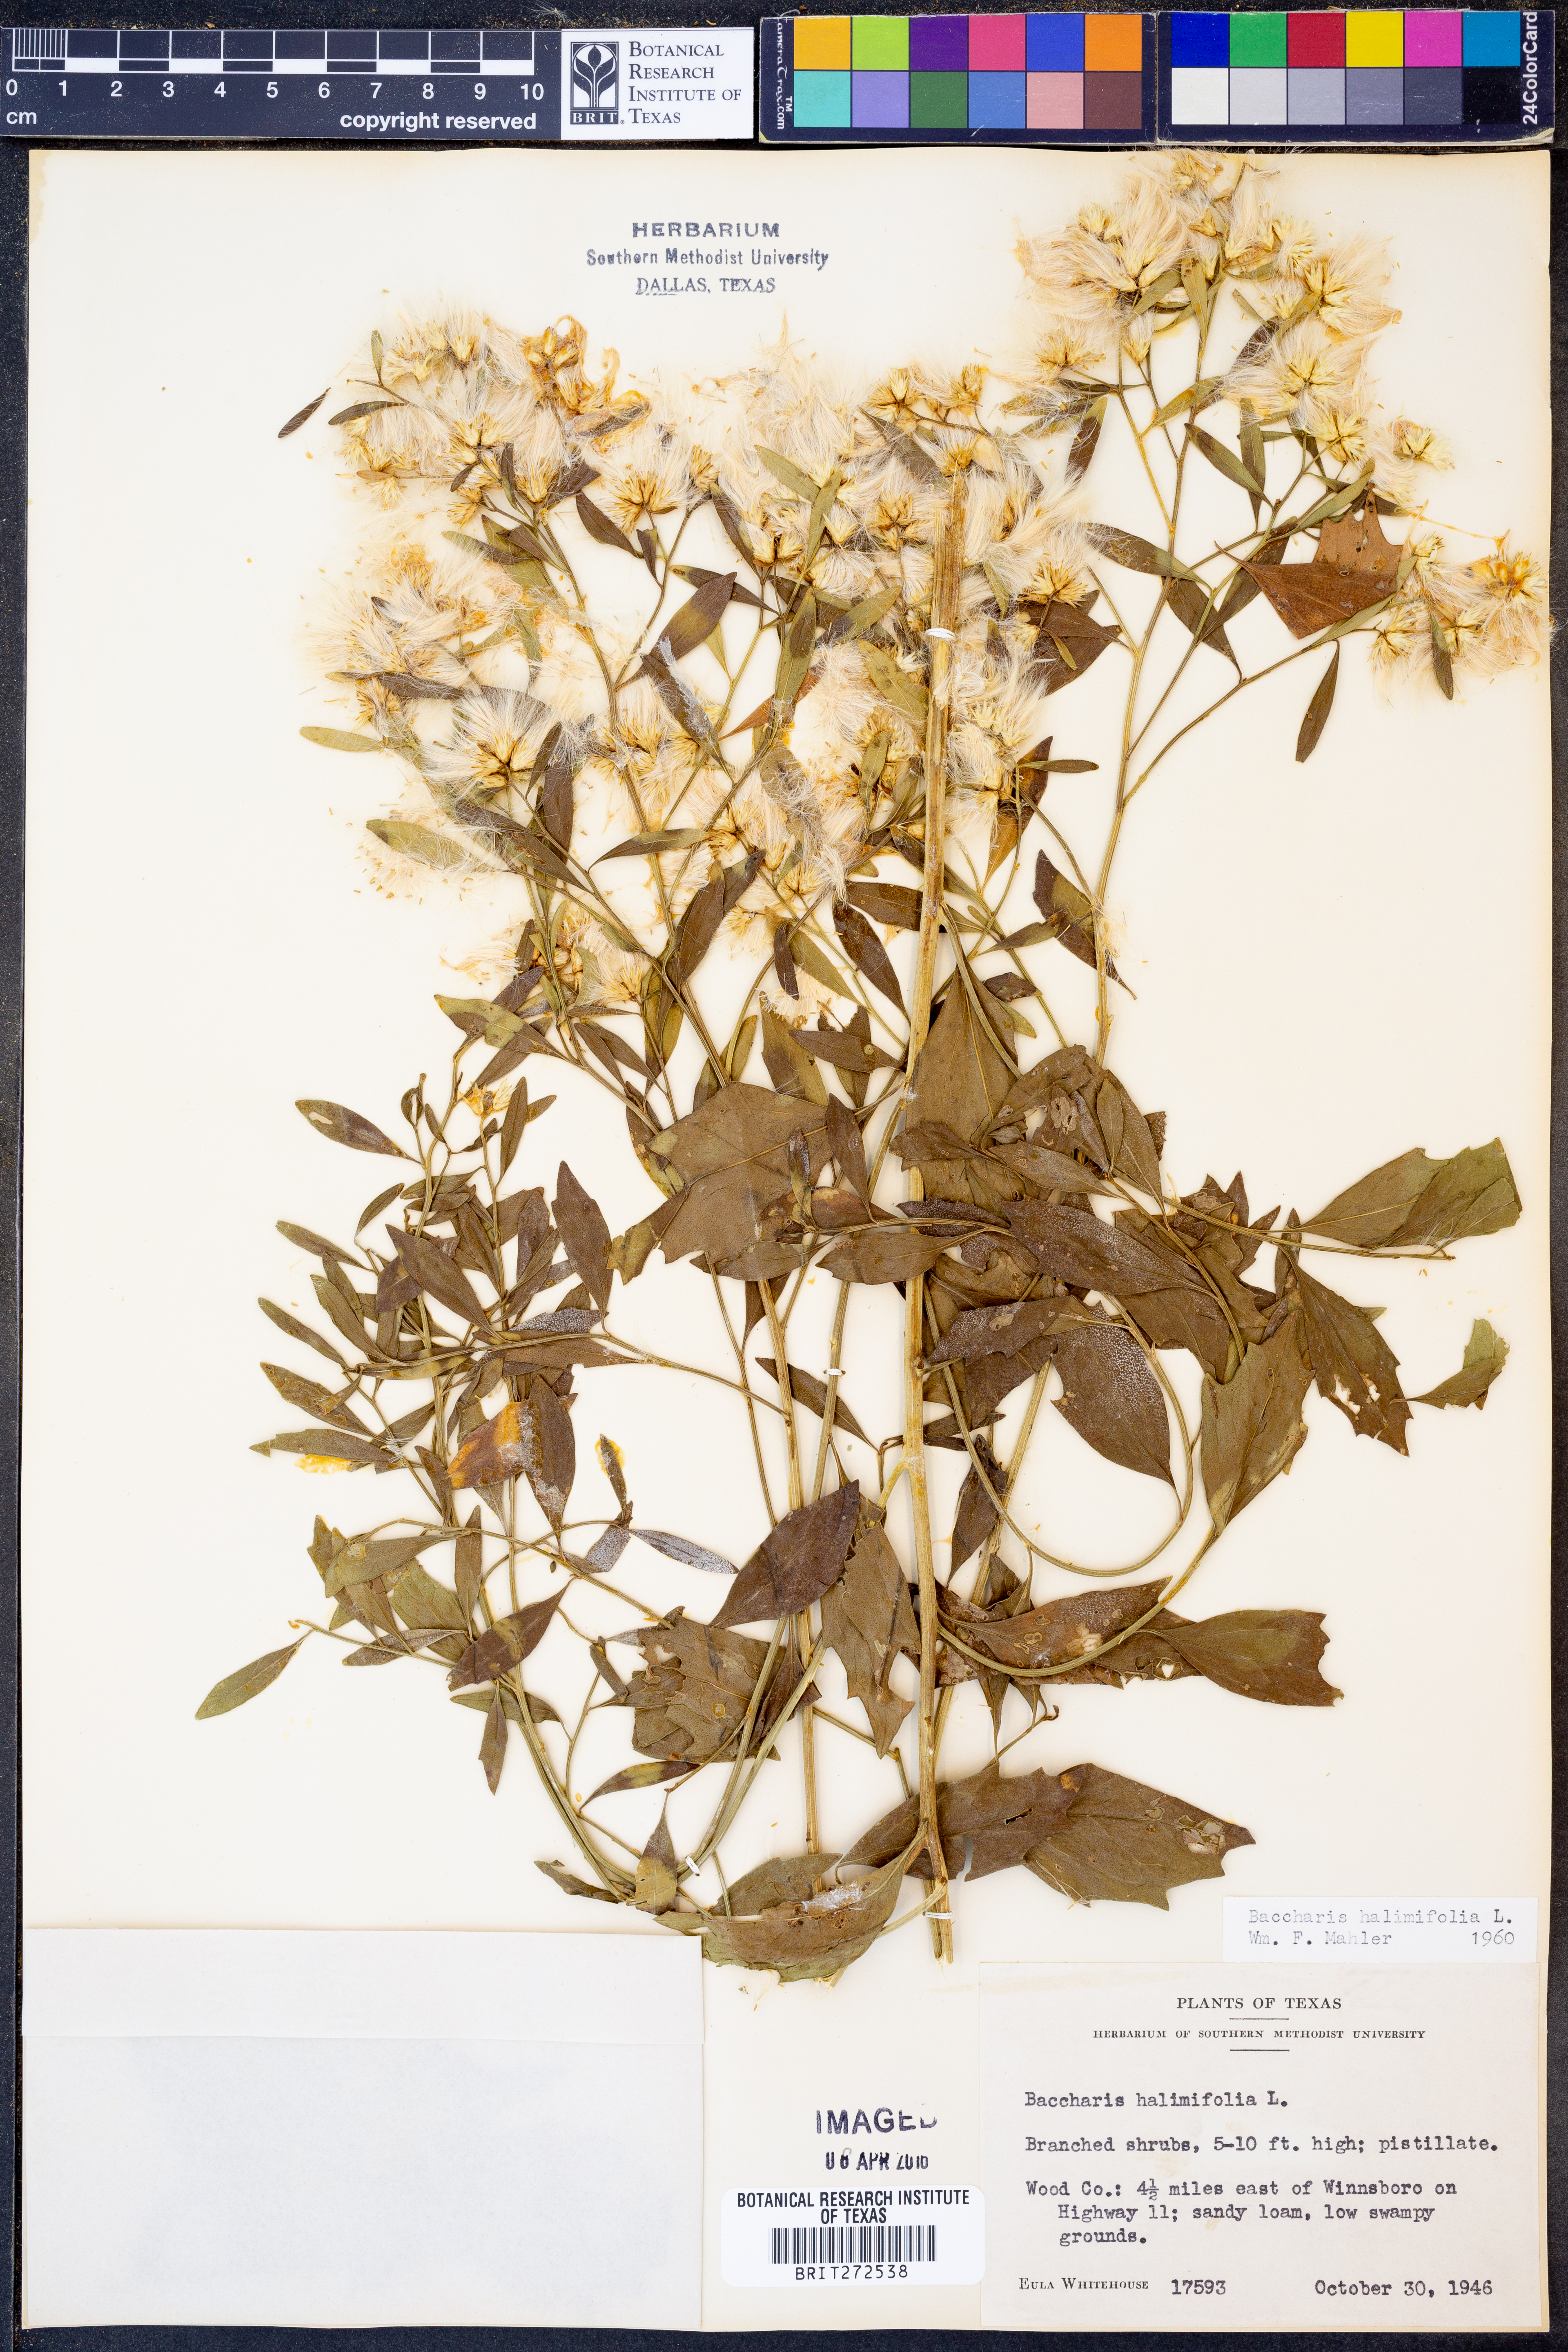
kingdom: Plantae
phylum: Tracheophyta
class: Magnoliopsida
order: Asterales
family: Asteraceae
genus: Nidorella
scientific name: Nidorella ivifolia
